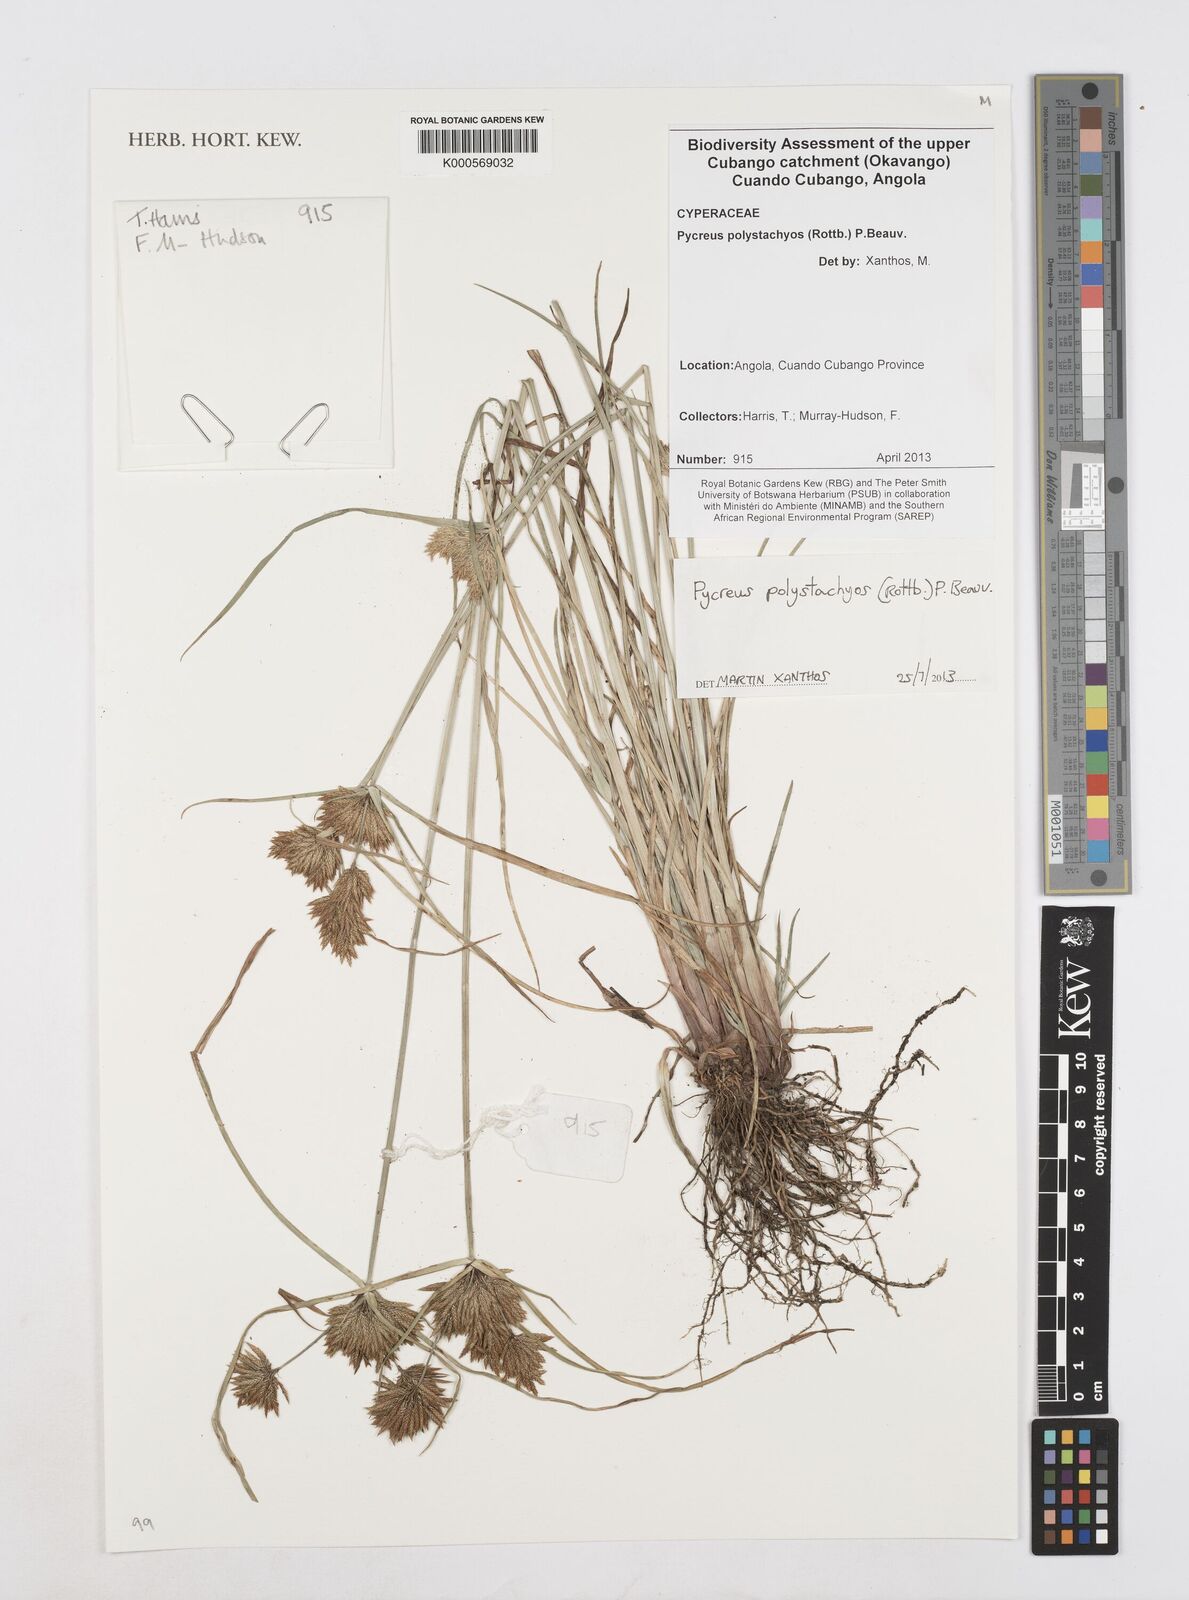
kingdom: Plantae
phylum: Tracheophyta
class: Liliopsida
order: Poales
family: Cyperaceae
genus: Cyperus
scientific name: Cyperus polystachyos
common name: Bunchy flat sedge
